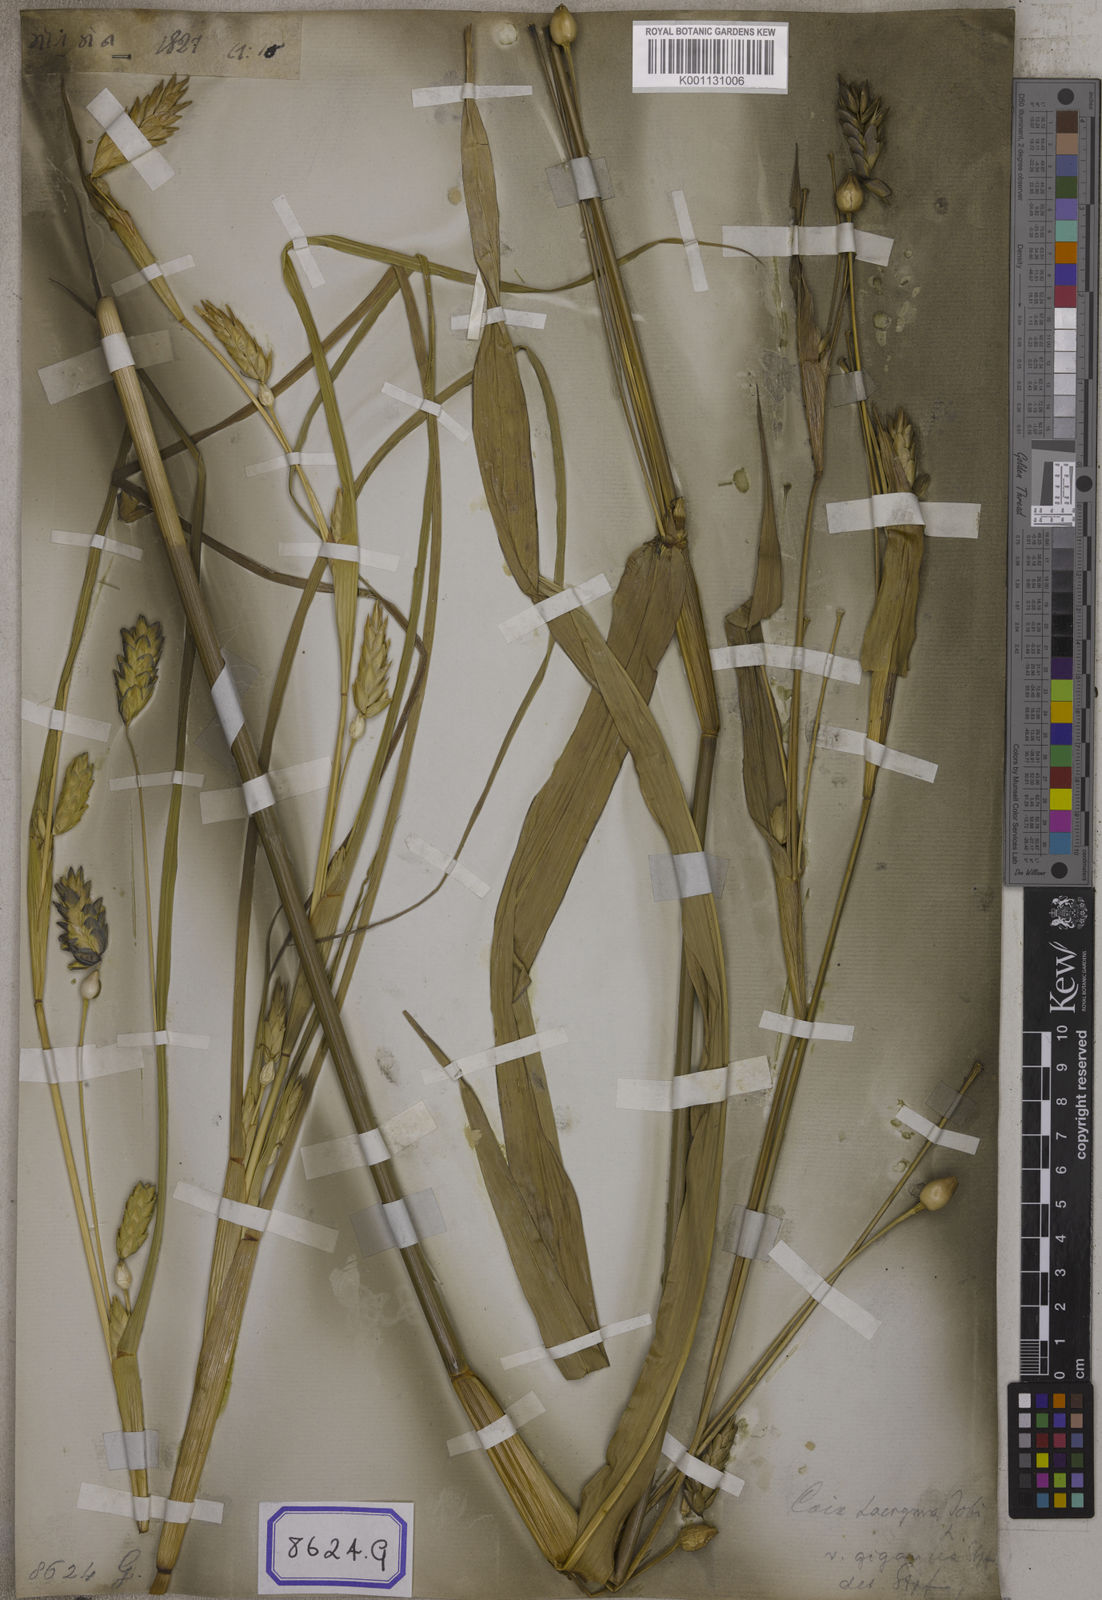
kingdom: Plantae
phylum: Tracheophyta
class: Liliopsida
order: Poales
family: Poaceae
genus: Polytoca
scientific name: Polytoca gigantea
